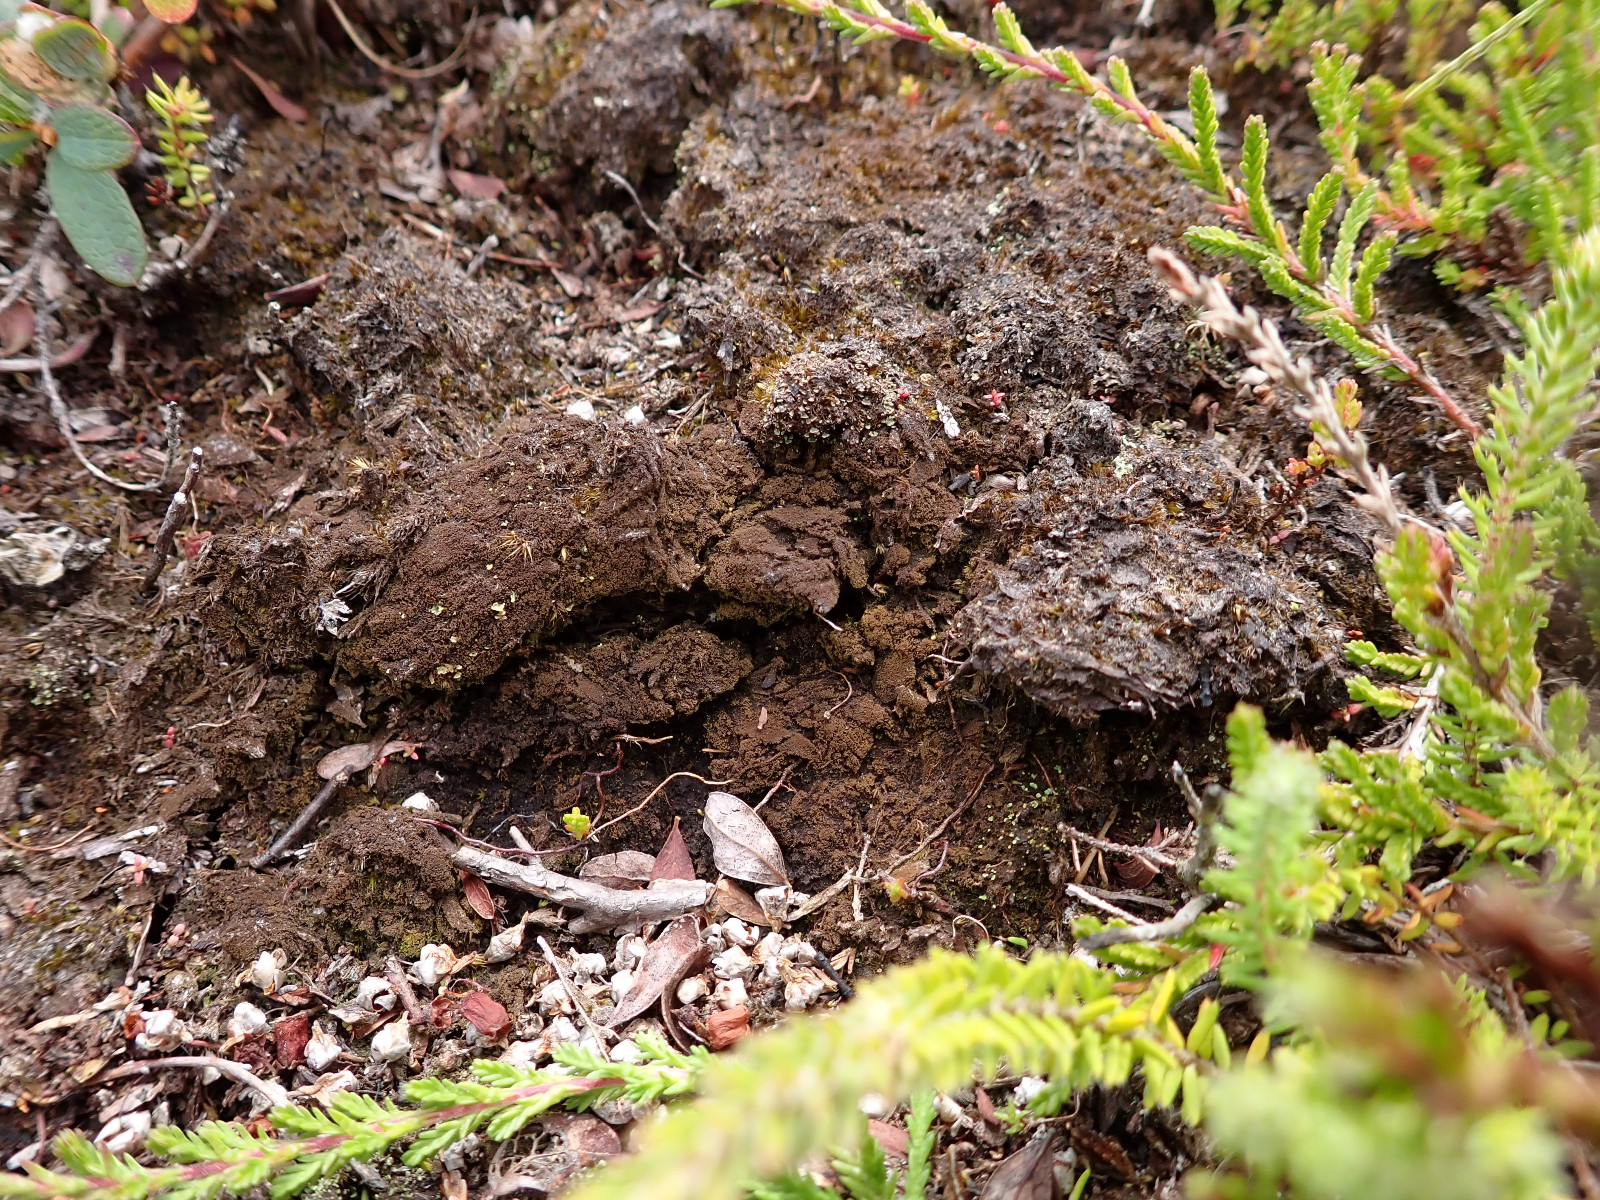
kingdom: Fungi
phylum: Ascomycota
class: Lecanoromycetes
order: Baeomycetales
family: Trapeliaceae
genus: Placynthiella
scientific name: Placynthiella icmalea
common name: stift-skivelav
